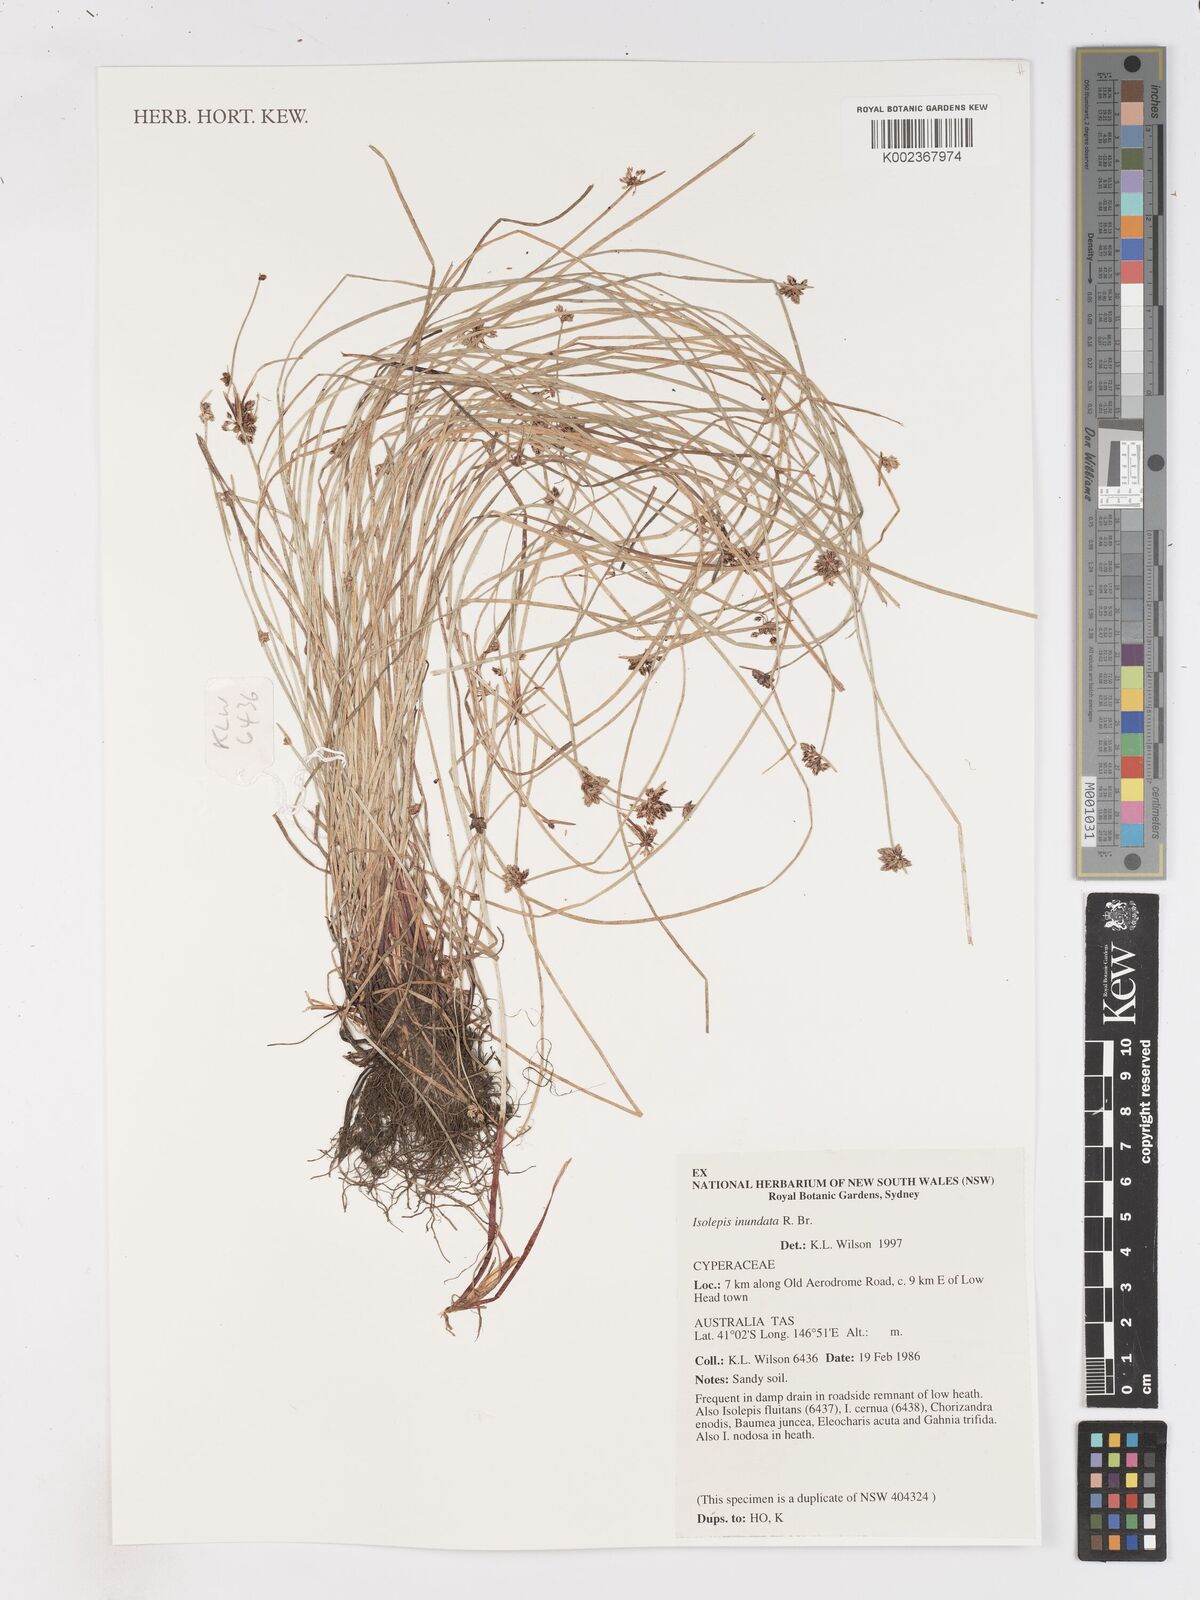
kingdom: Plantae
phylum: Tracheophyta
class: Liliopsida
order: Poales
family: Cyperaceae
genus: Isolepis
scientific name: Isolepis inundata
